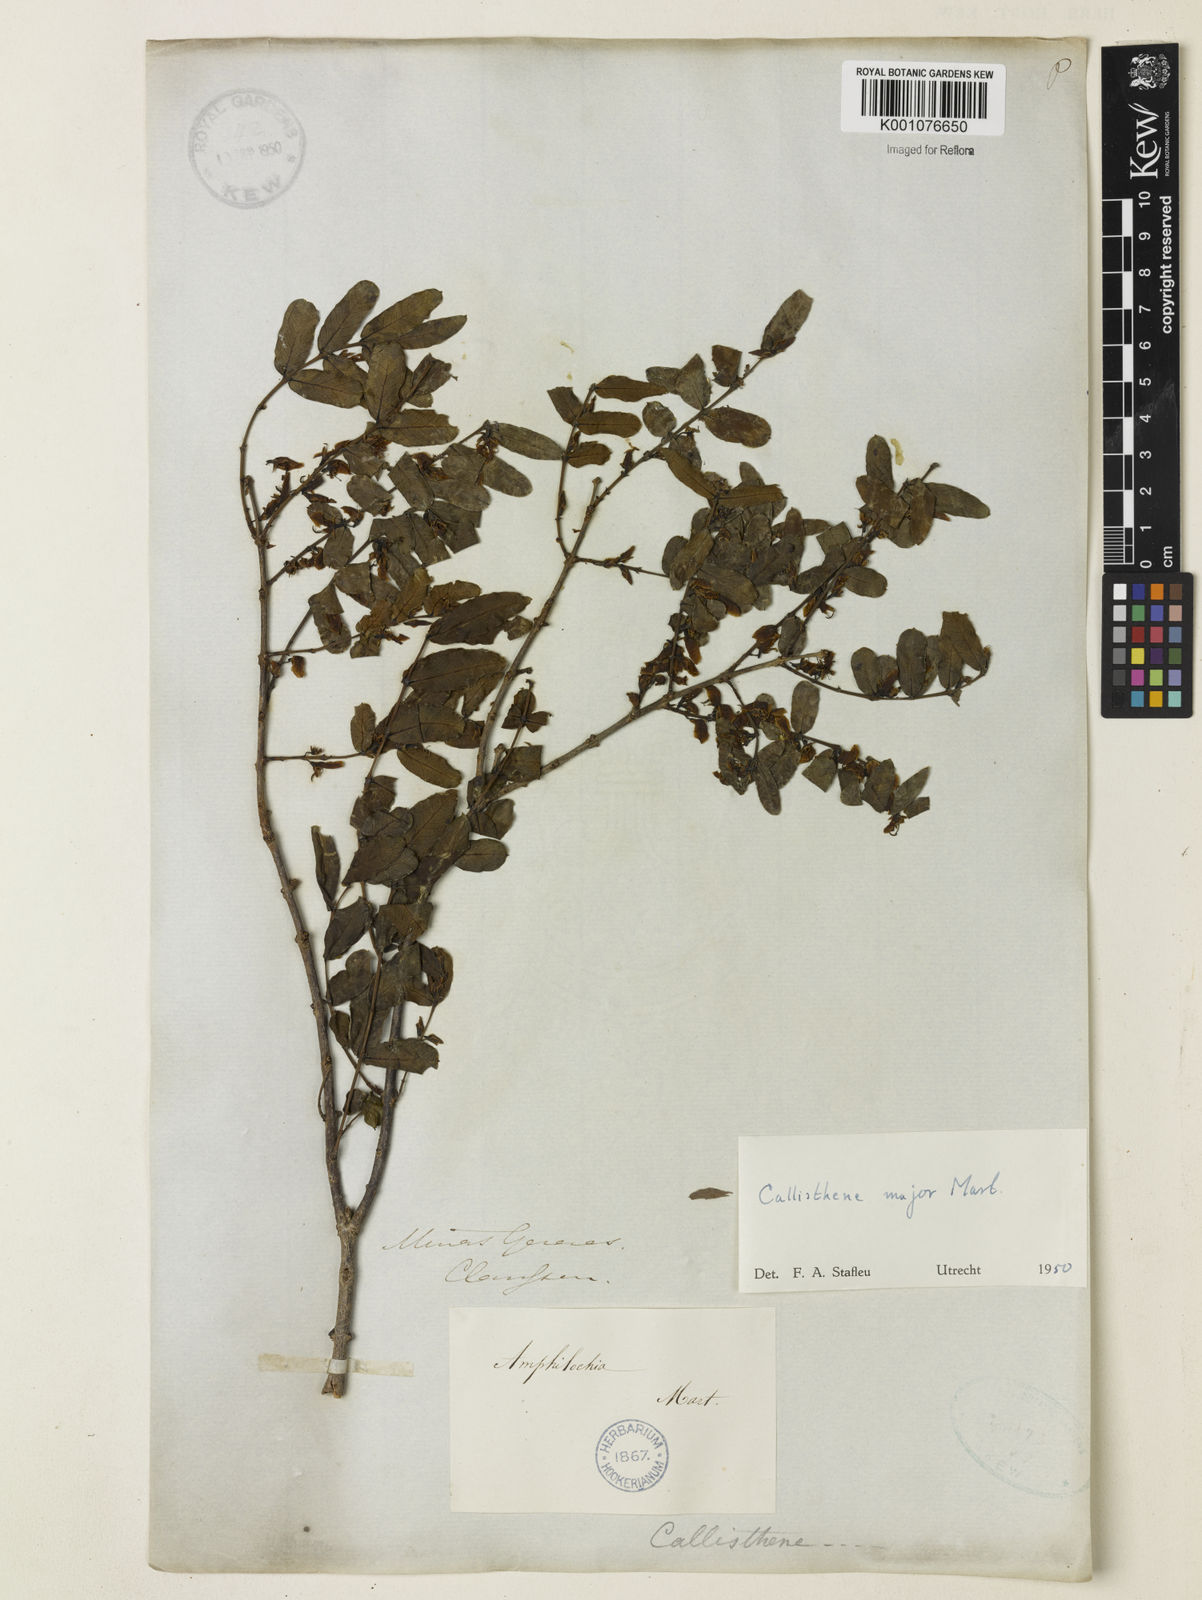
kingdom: Plantae
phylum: Tracheophyta
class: Magnoliopsida
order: Myrtales
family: Vochysiaceae
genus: Callisthene
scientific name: Callisthene major
